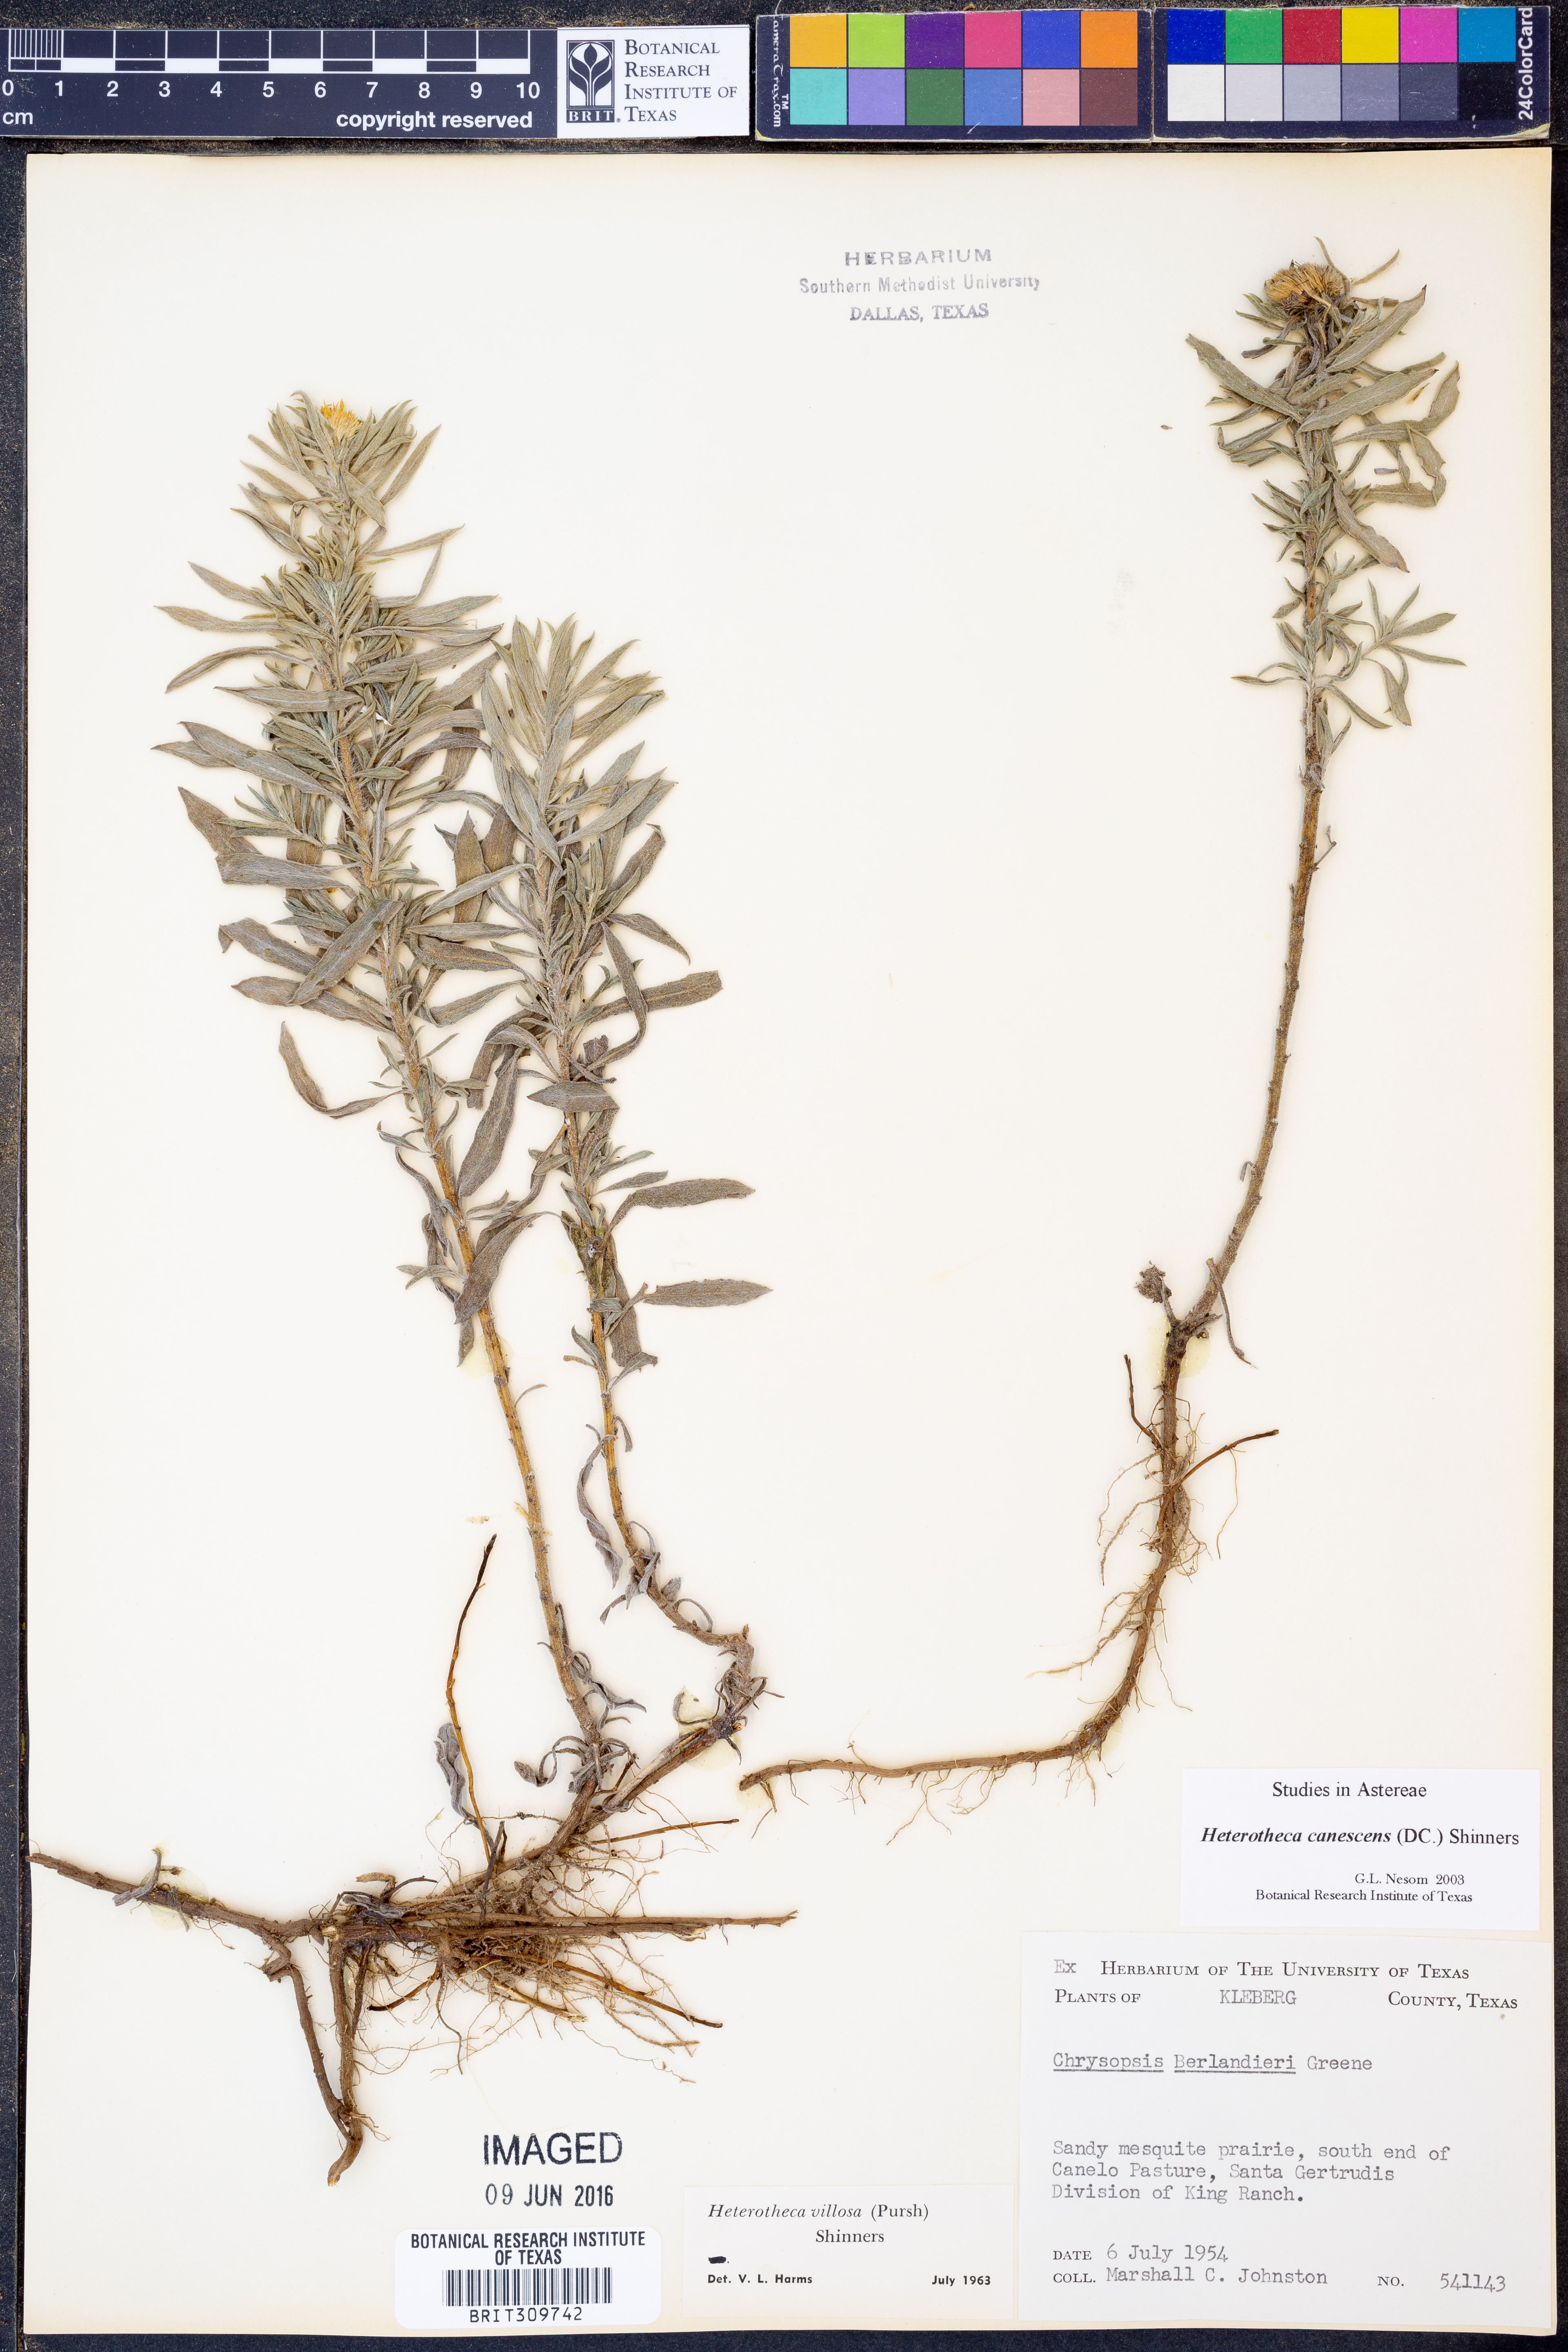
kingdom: Plantae
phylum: Tracheophyta
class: Magnoliopsida
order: Asterales
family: Asteraceae
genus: Heterotheca
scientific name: Heterotheca canescens
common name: Hoary golden-aster
